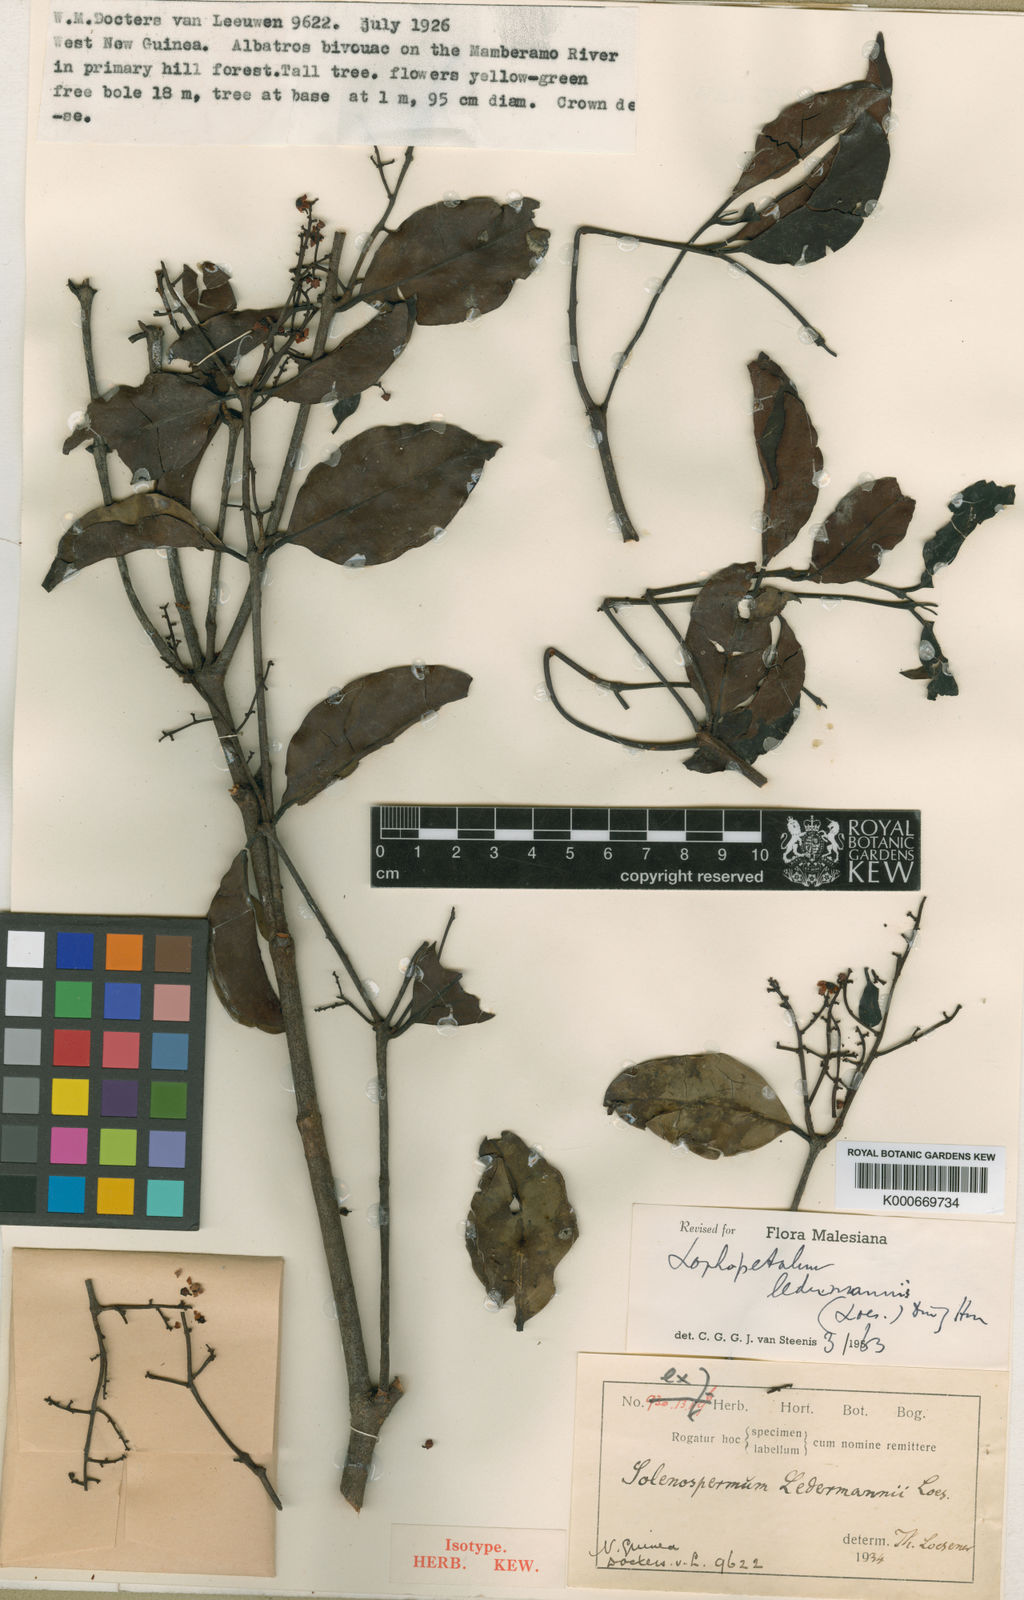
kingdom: Plantae
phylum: Tracheophyta
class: Magnoliopsida
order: Celastrales
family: Celastraceae
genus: Lophopetalum
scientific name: Lophopetalum ledermannii
